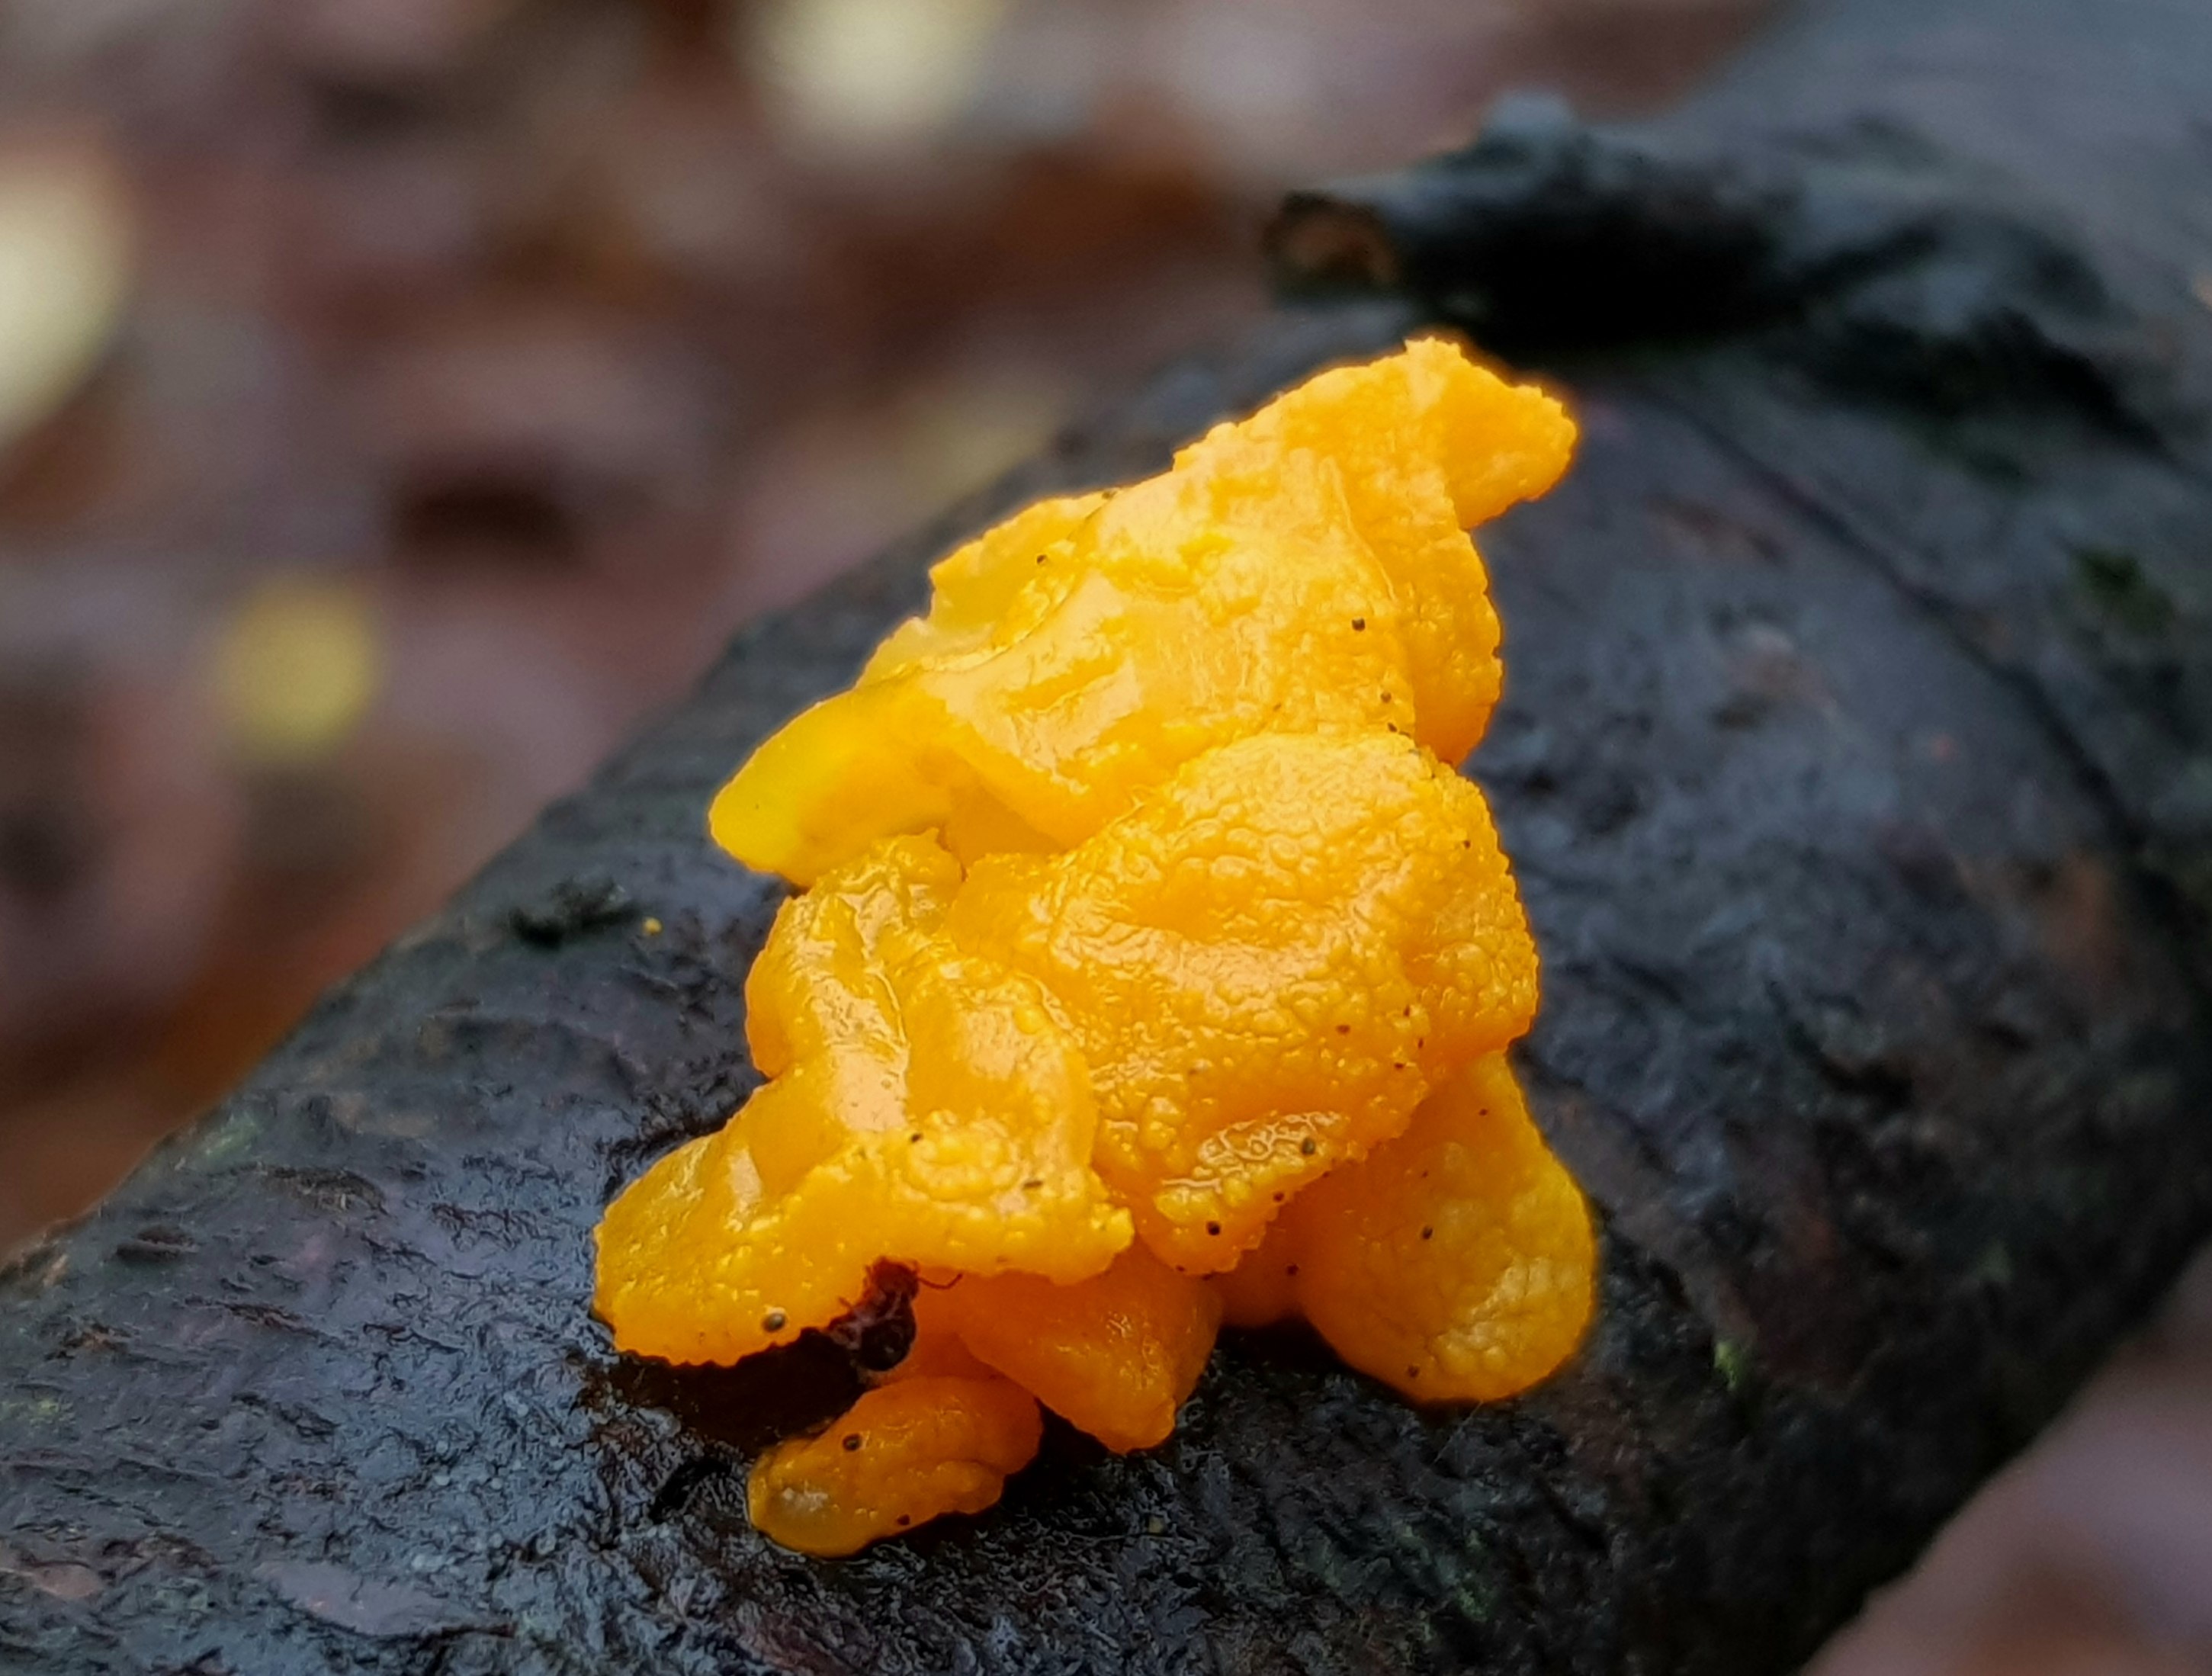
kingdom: Fungi
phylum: Basidiomycota
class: Tremellomycetes
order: Tremellales
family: Tremellaceae
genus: Tremella
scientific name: Tremella mesenterica
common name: gul bævresvamp
